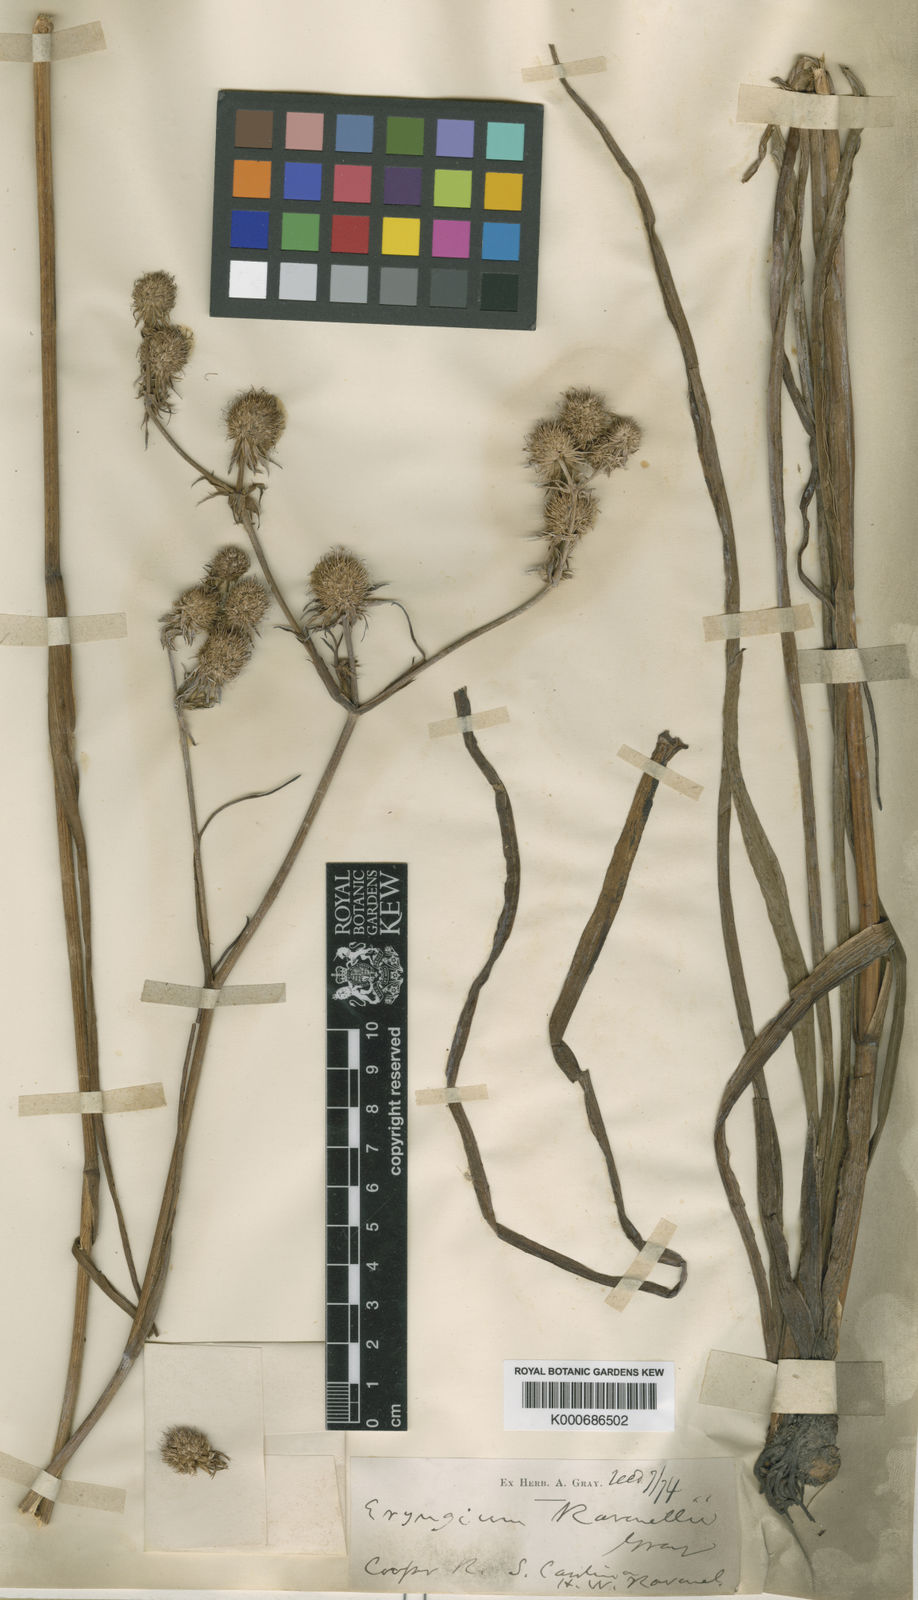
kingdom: Plantae
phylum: Tracheophyta
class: Magnoliopsida
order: Apiales
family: Apiaceae
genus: Eryngium
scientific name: Eryngium aquaticum
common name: Water eryngo
